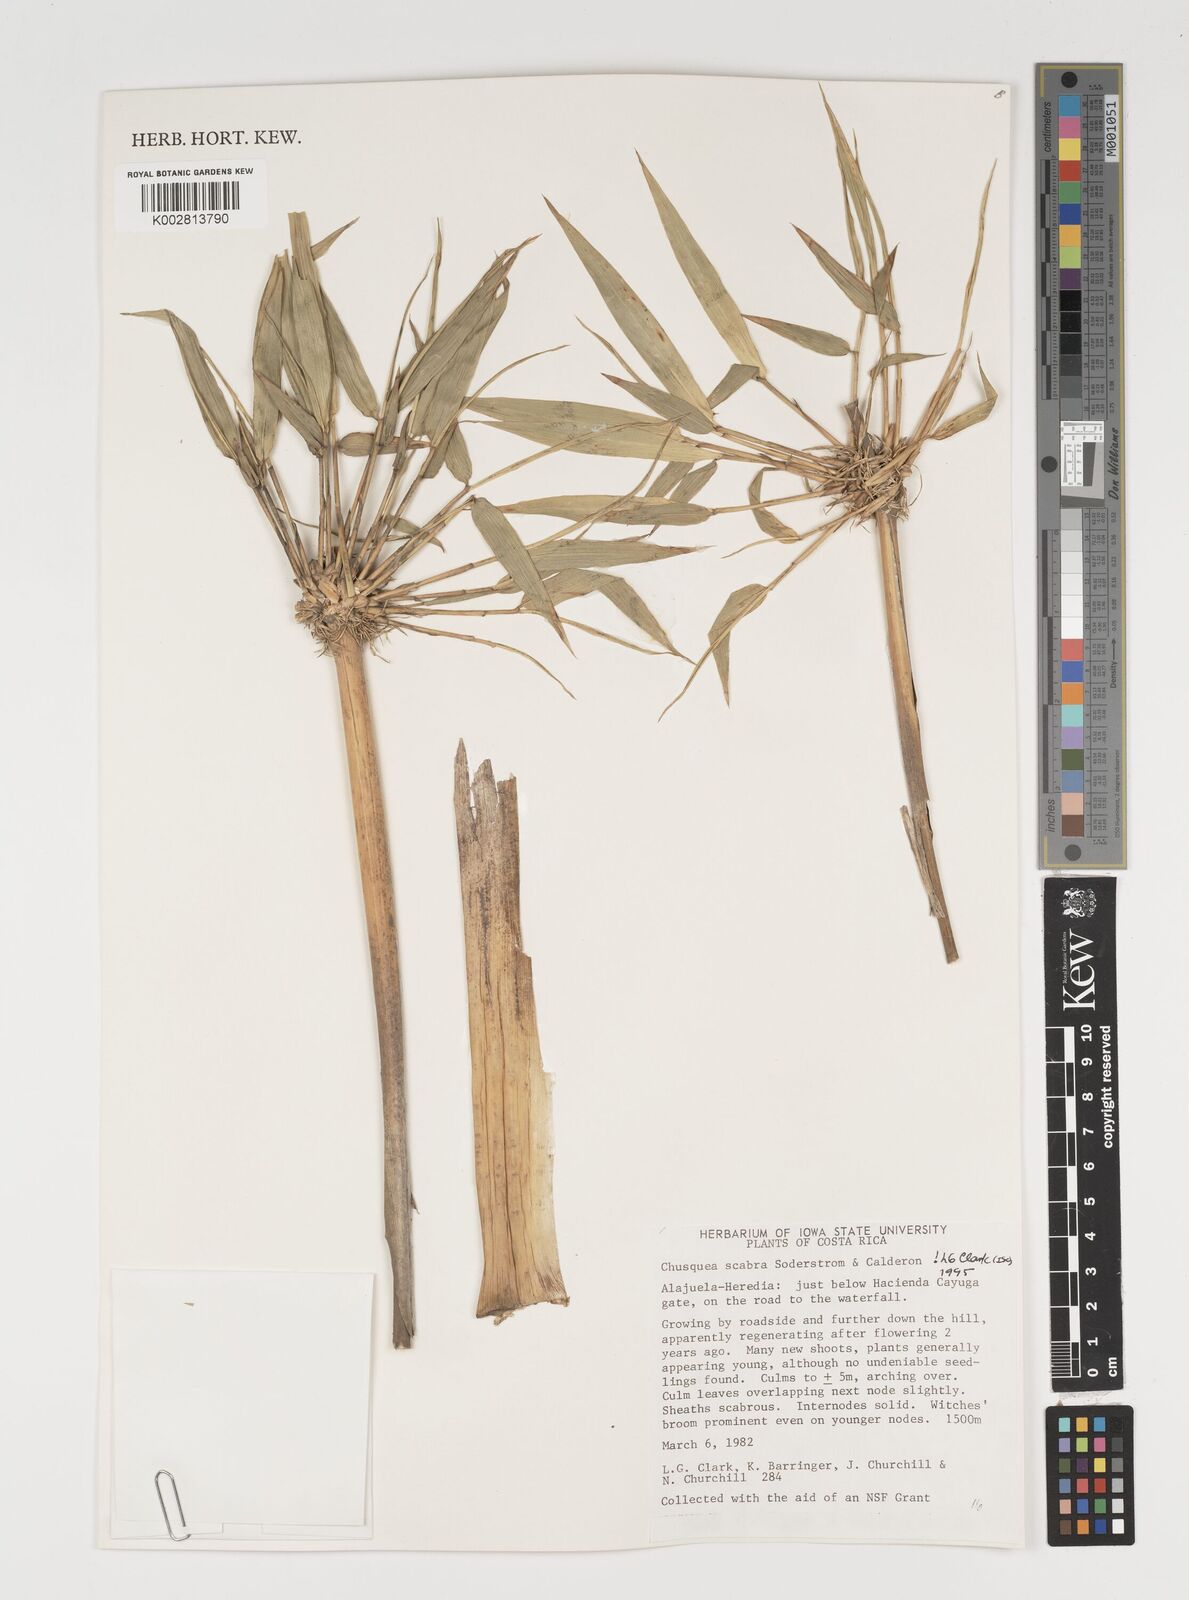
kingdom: Plantae
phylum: Tracheophyta
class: Liliopsida
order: Poales
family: Poaceae
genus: Chusquea
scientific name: Chusquea scabra
